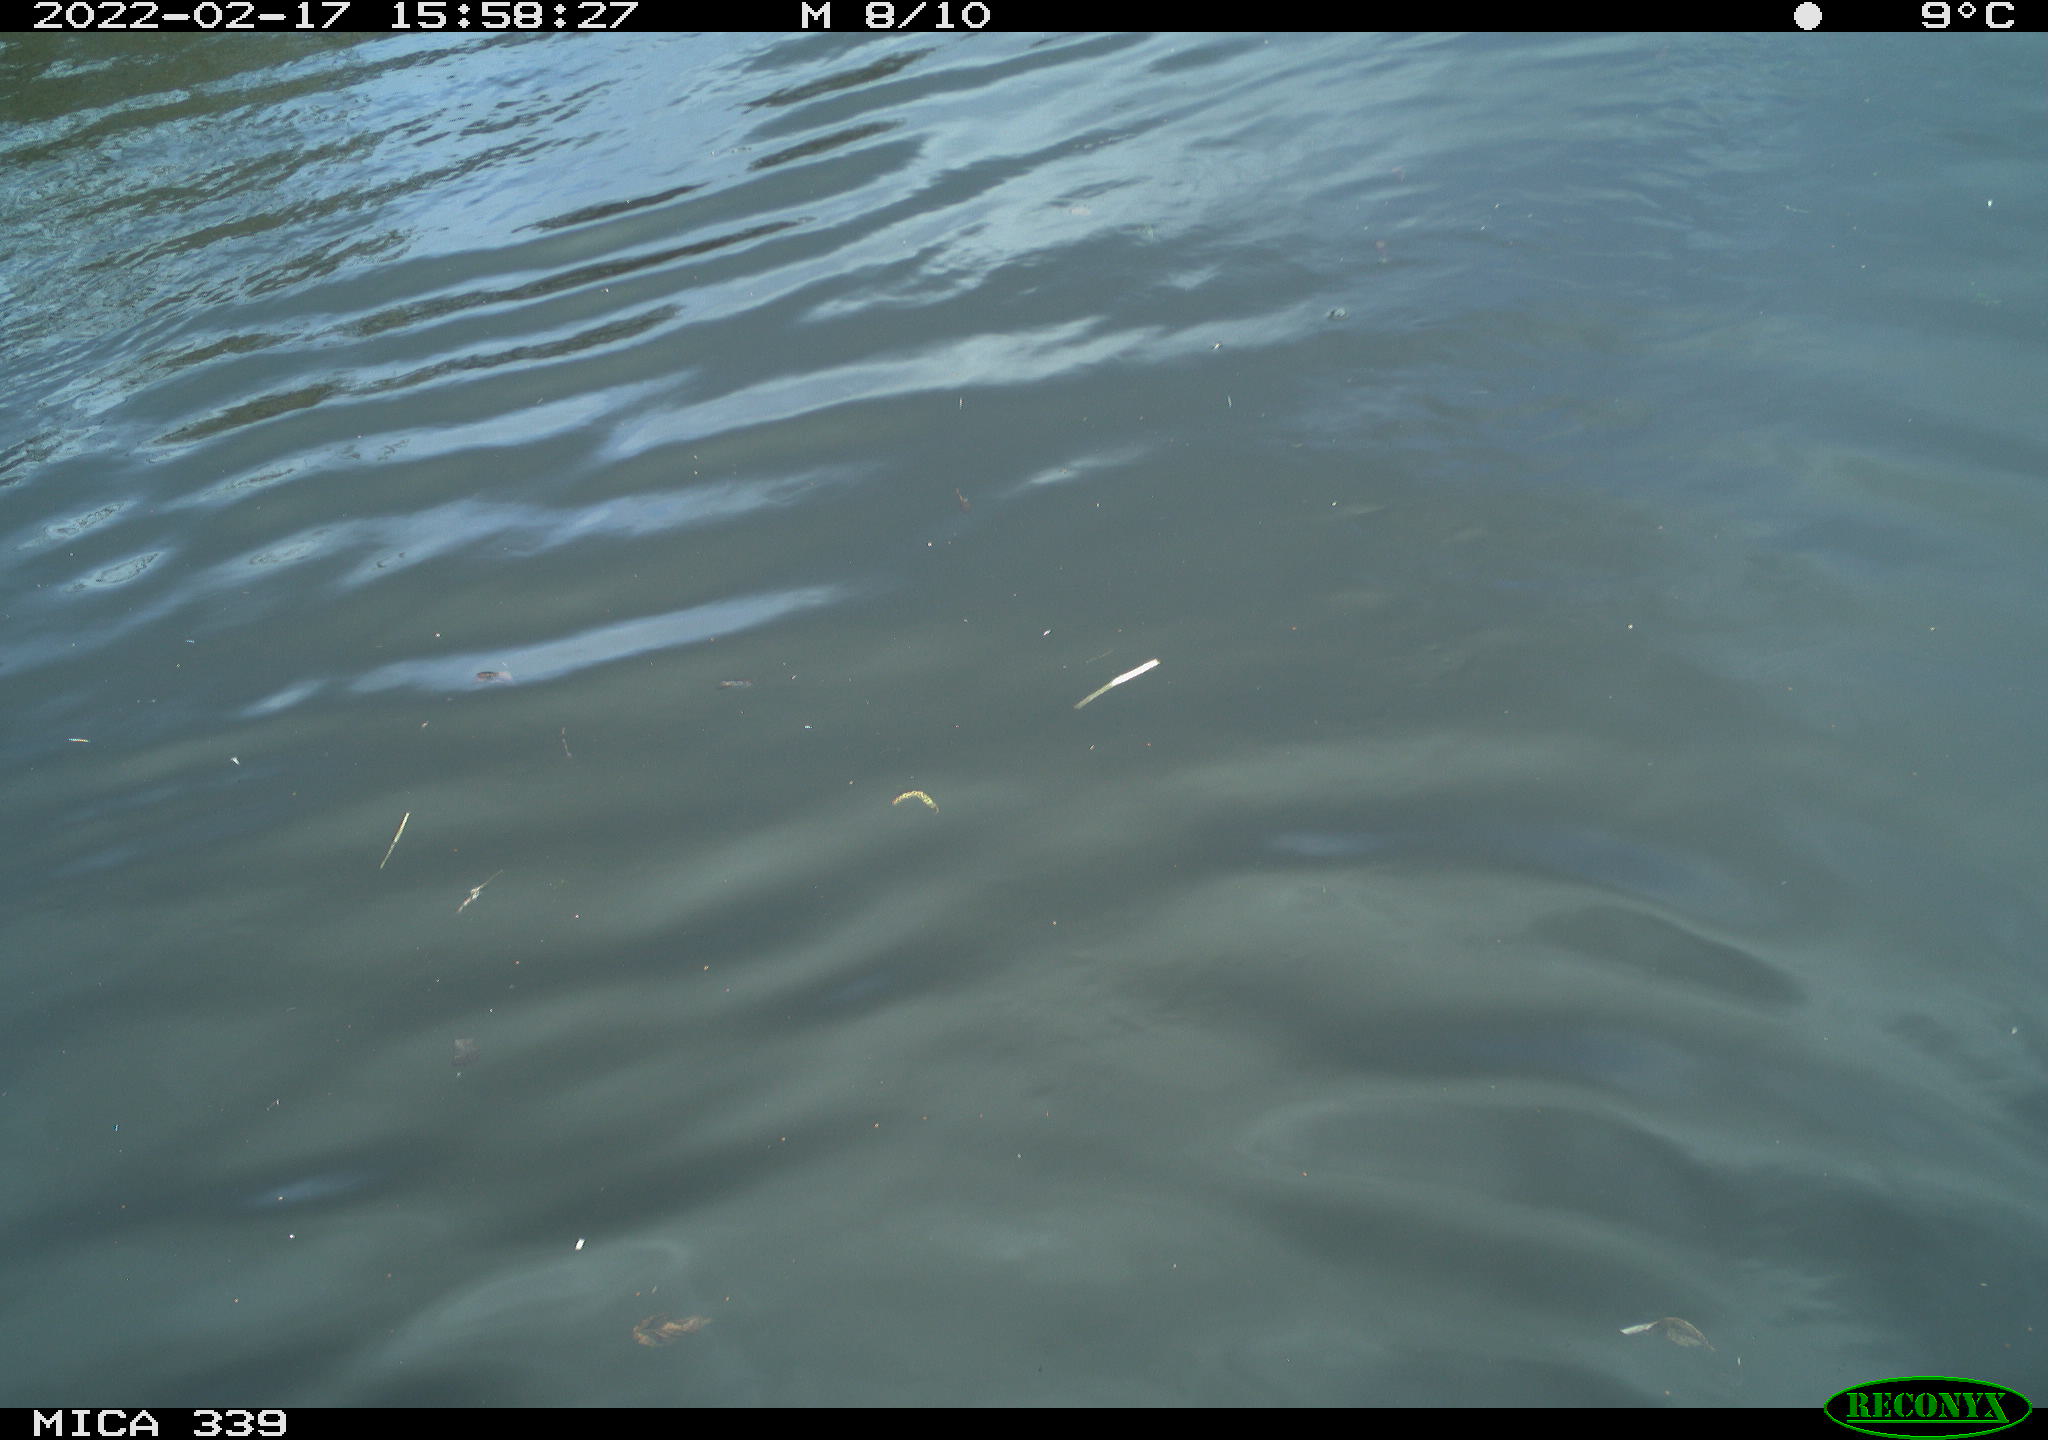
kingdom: Animalia
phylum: Chordata
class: Aves
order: Suliformes
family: Phalacrocoracidae
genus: Phalacrocorax
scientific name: Phalacrocorax carbo
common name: Great cormorant
